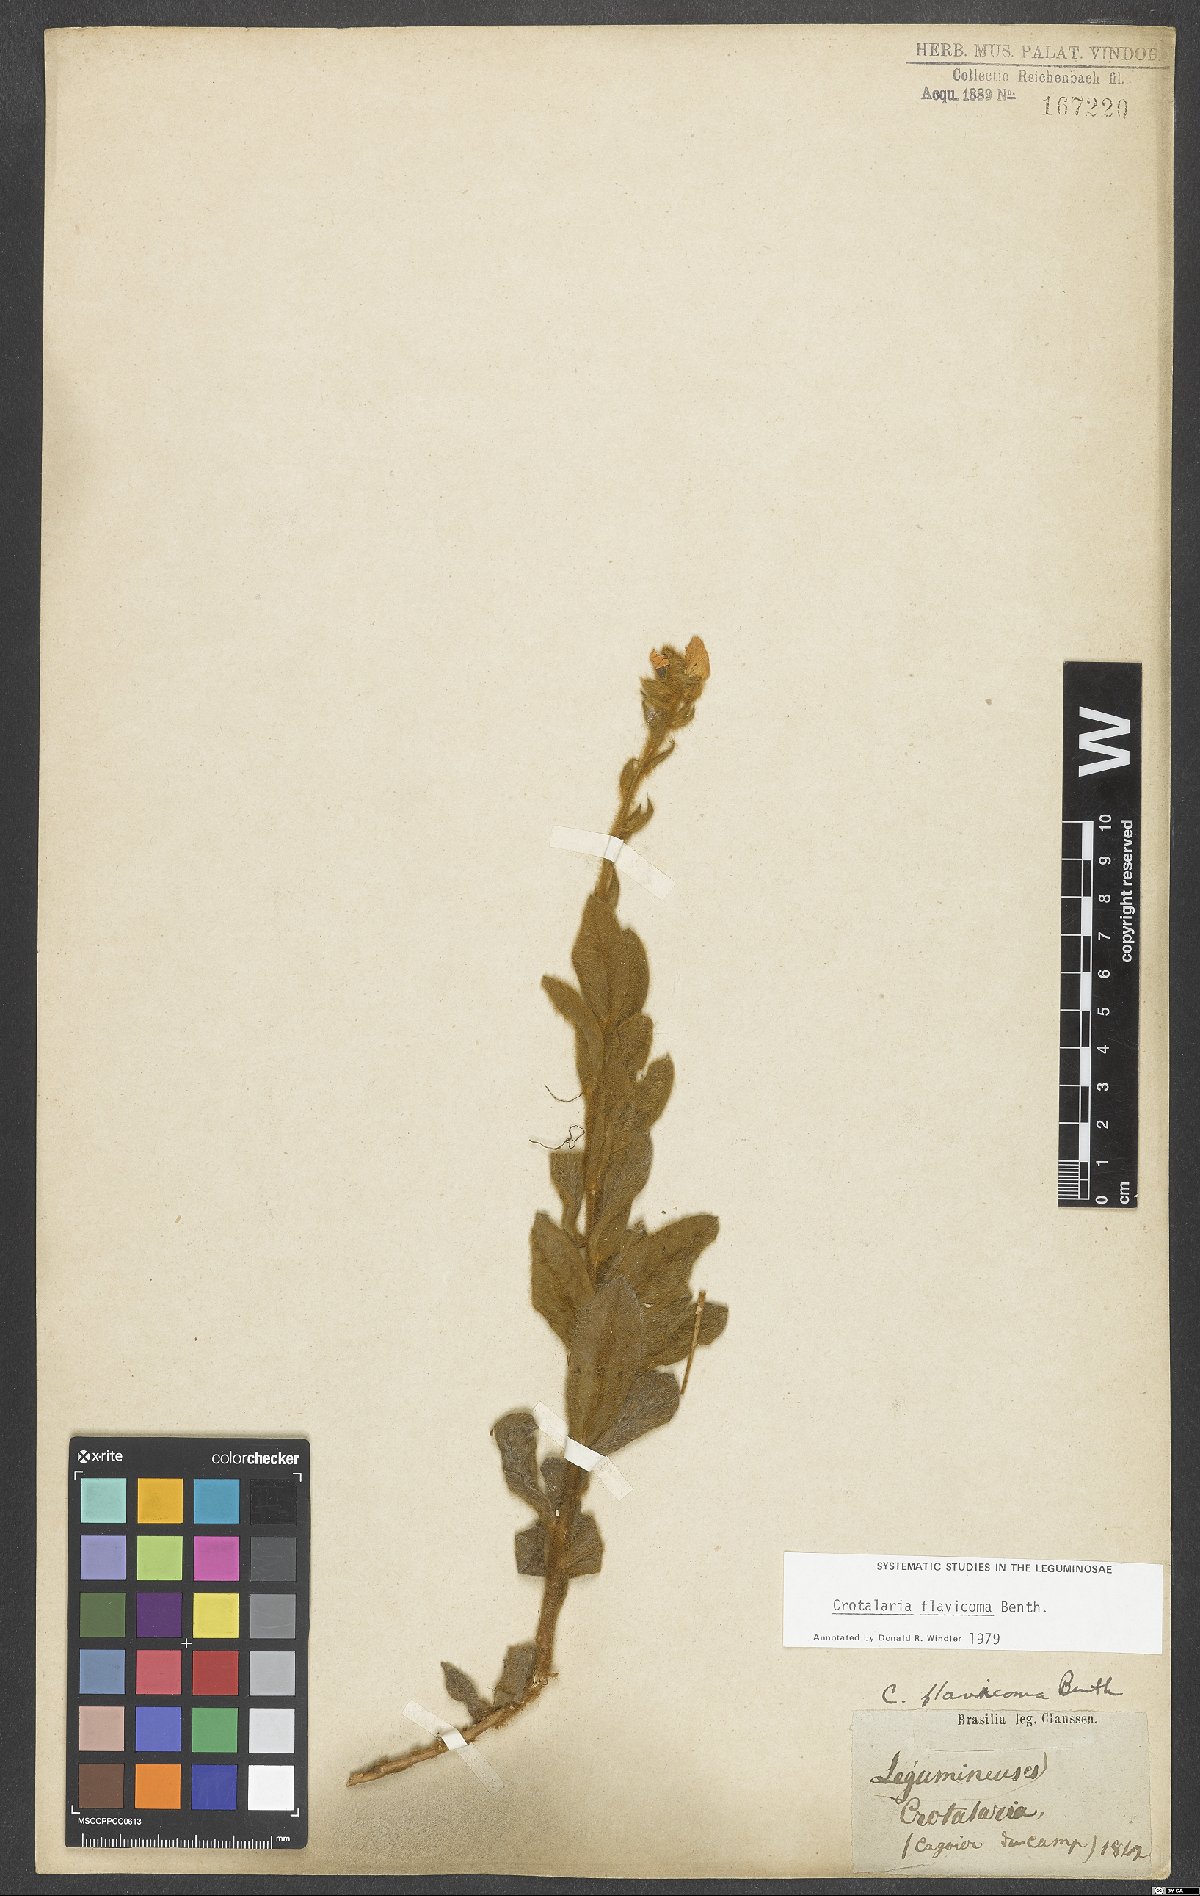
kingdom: Plantae
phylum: Tracheophyta
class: Magnoliopsida
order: Fabales
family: Fabaceae
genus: Crotalaria
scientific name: Crotalaria flavicoma
